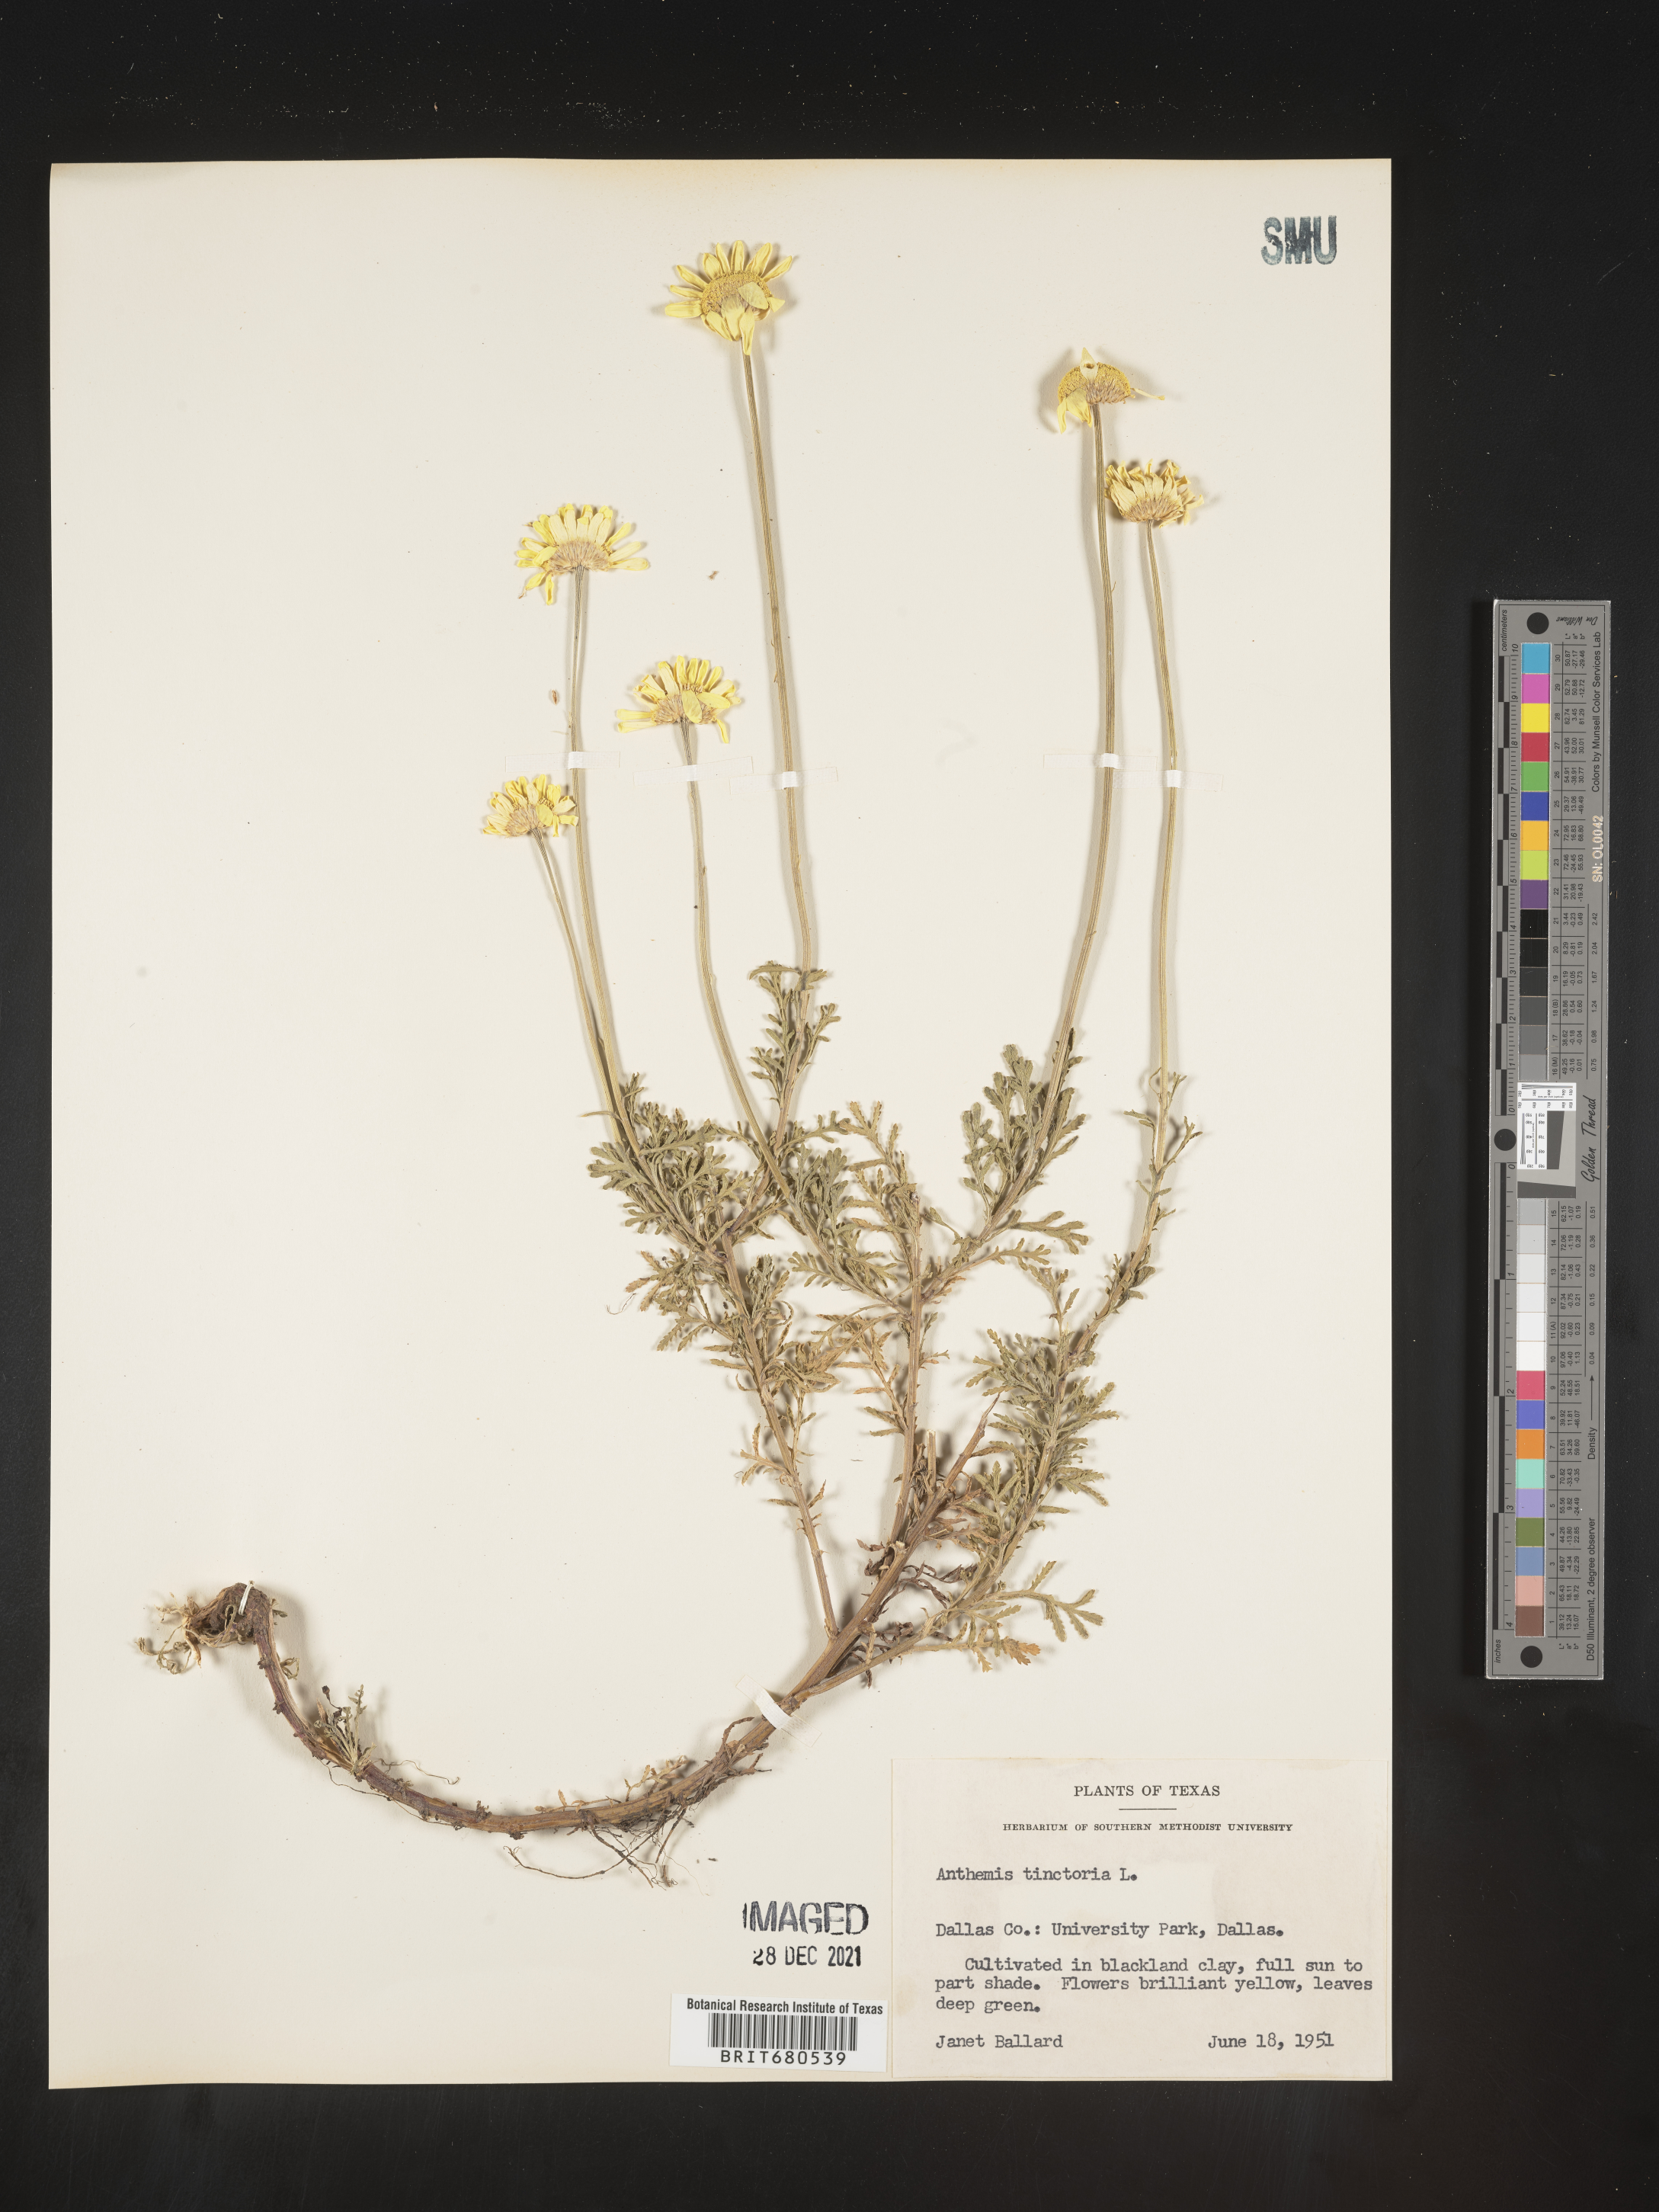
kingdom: Plantae
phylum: Tracheophyta
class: Magnoliopsida
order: Asterales
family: Asteraceae
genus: Anthemis
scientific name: Anthemis
